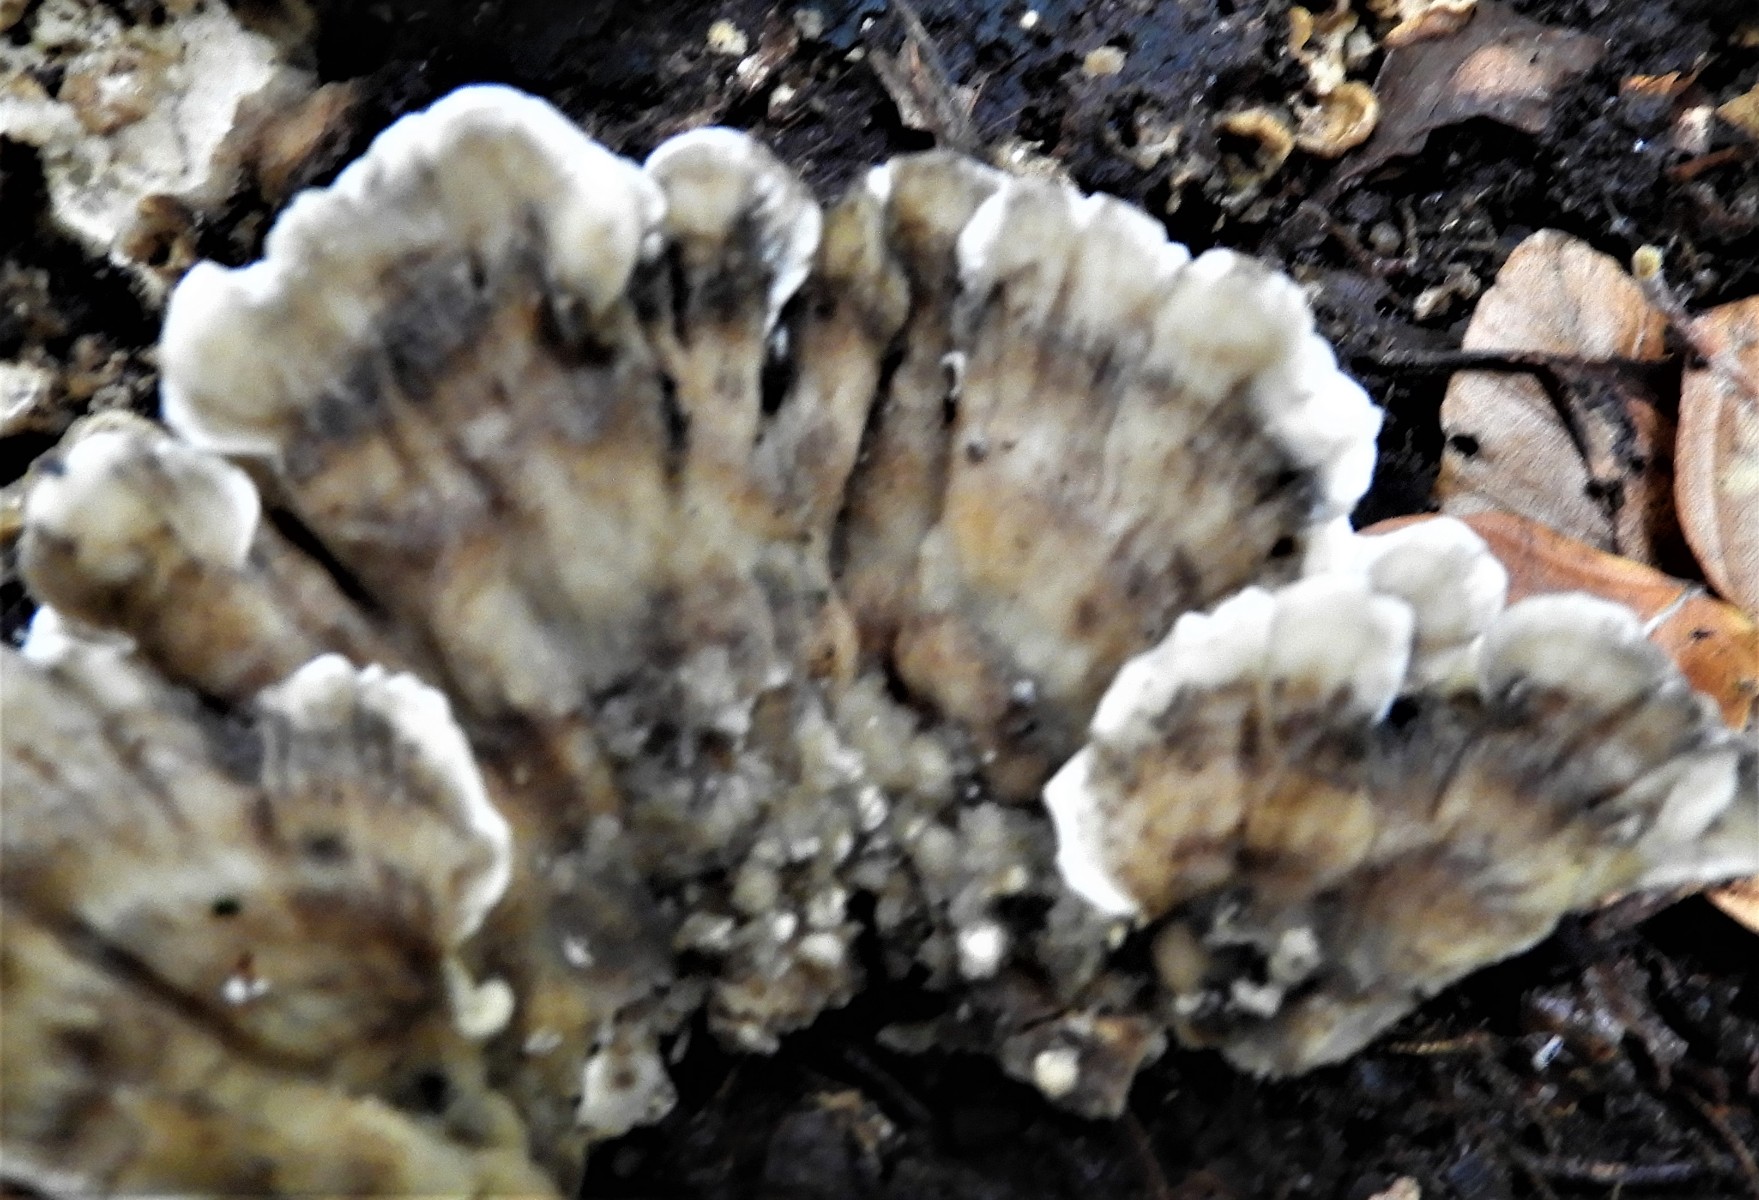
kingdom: Fungi
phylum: Basidiomycota
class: Agaricomycetes
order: Polyporales
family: Phanerochaetaceae
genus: Bjerkandera
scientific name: Bjerkandera adusta
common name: sveden sodporesvamp
